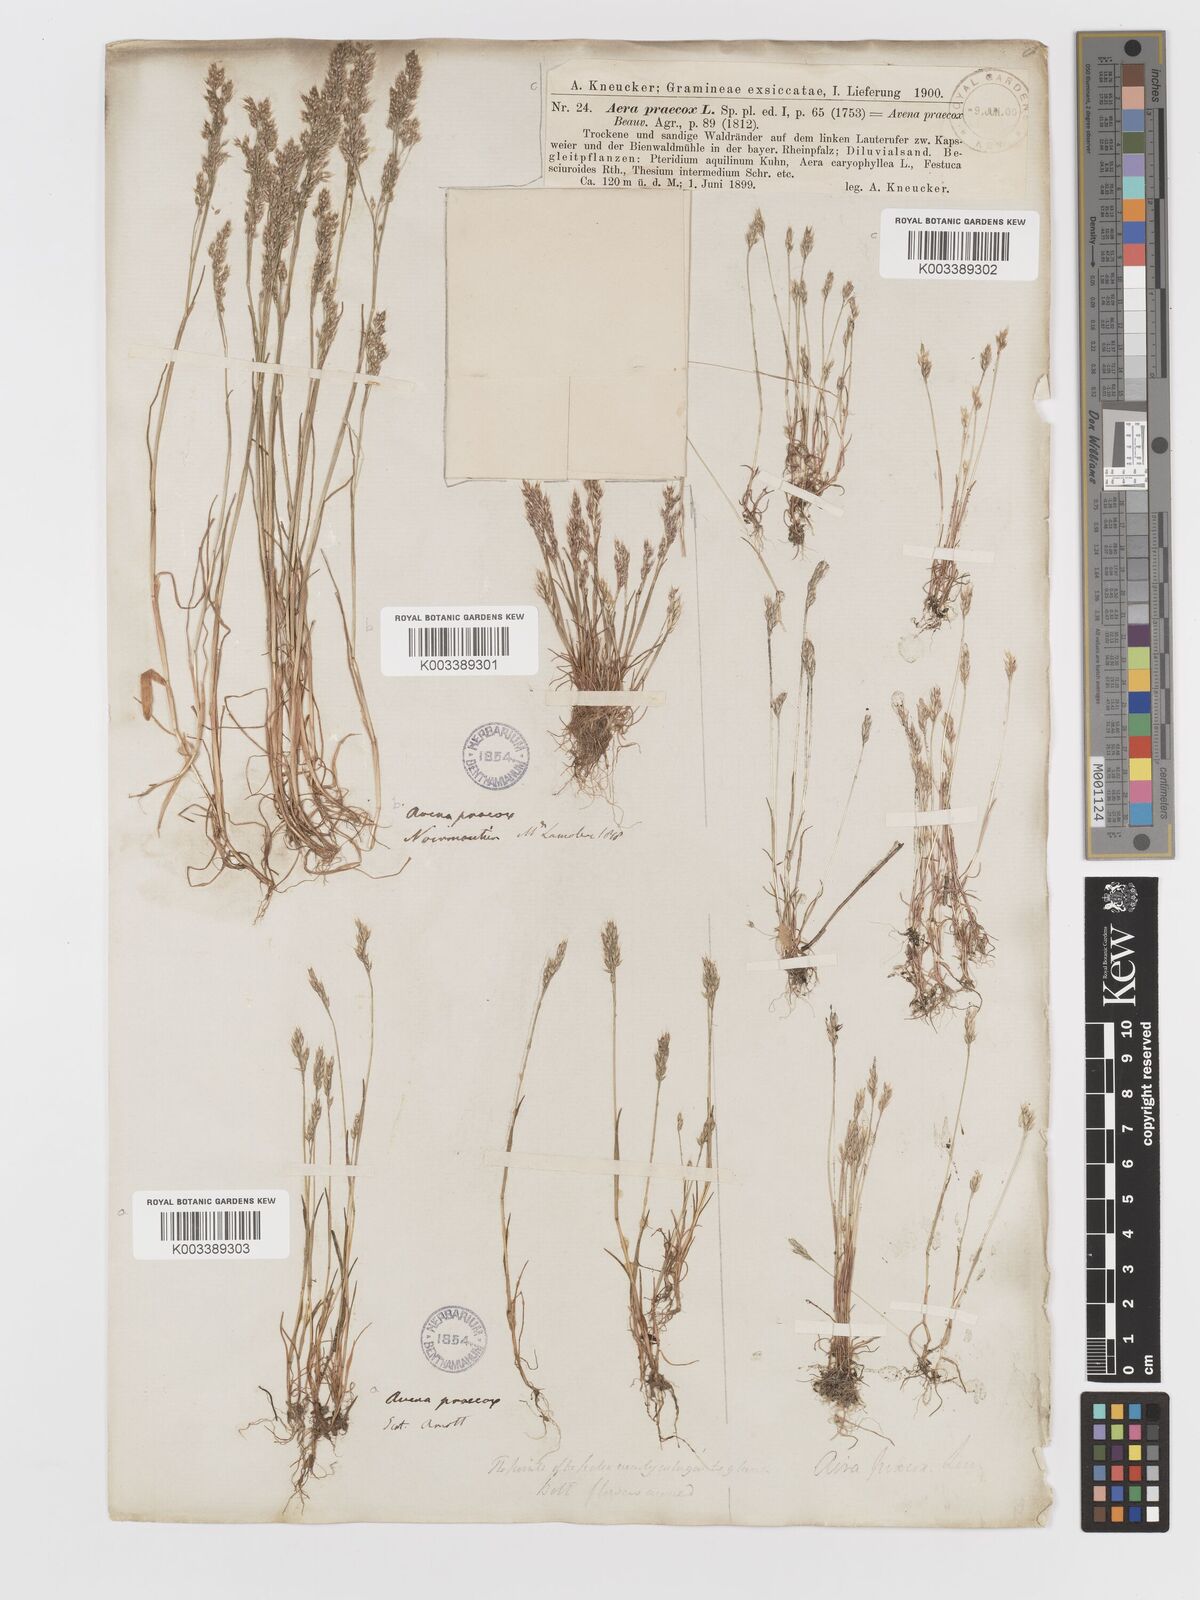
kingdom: Plantae
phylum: Tracheophyta
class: Liliopsida
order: Poales
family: Poaceae
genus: Aira
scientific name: Aira praecox
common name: Early hair-grass
